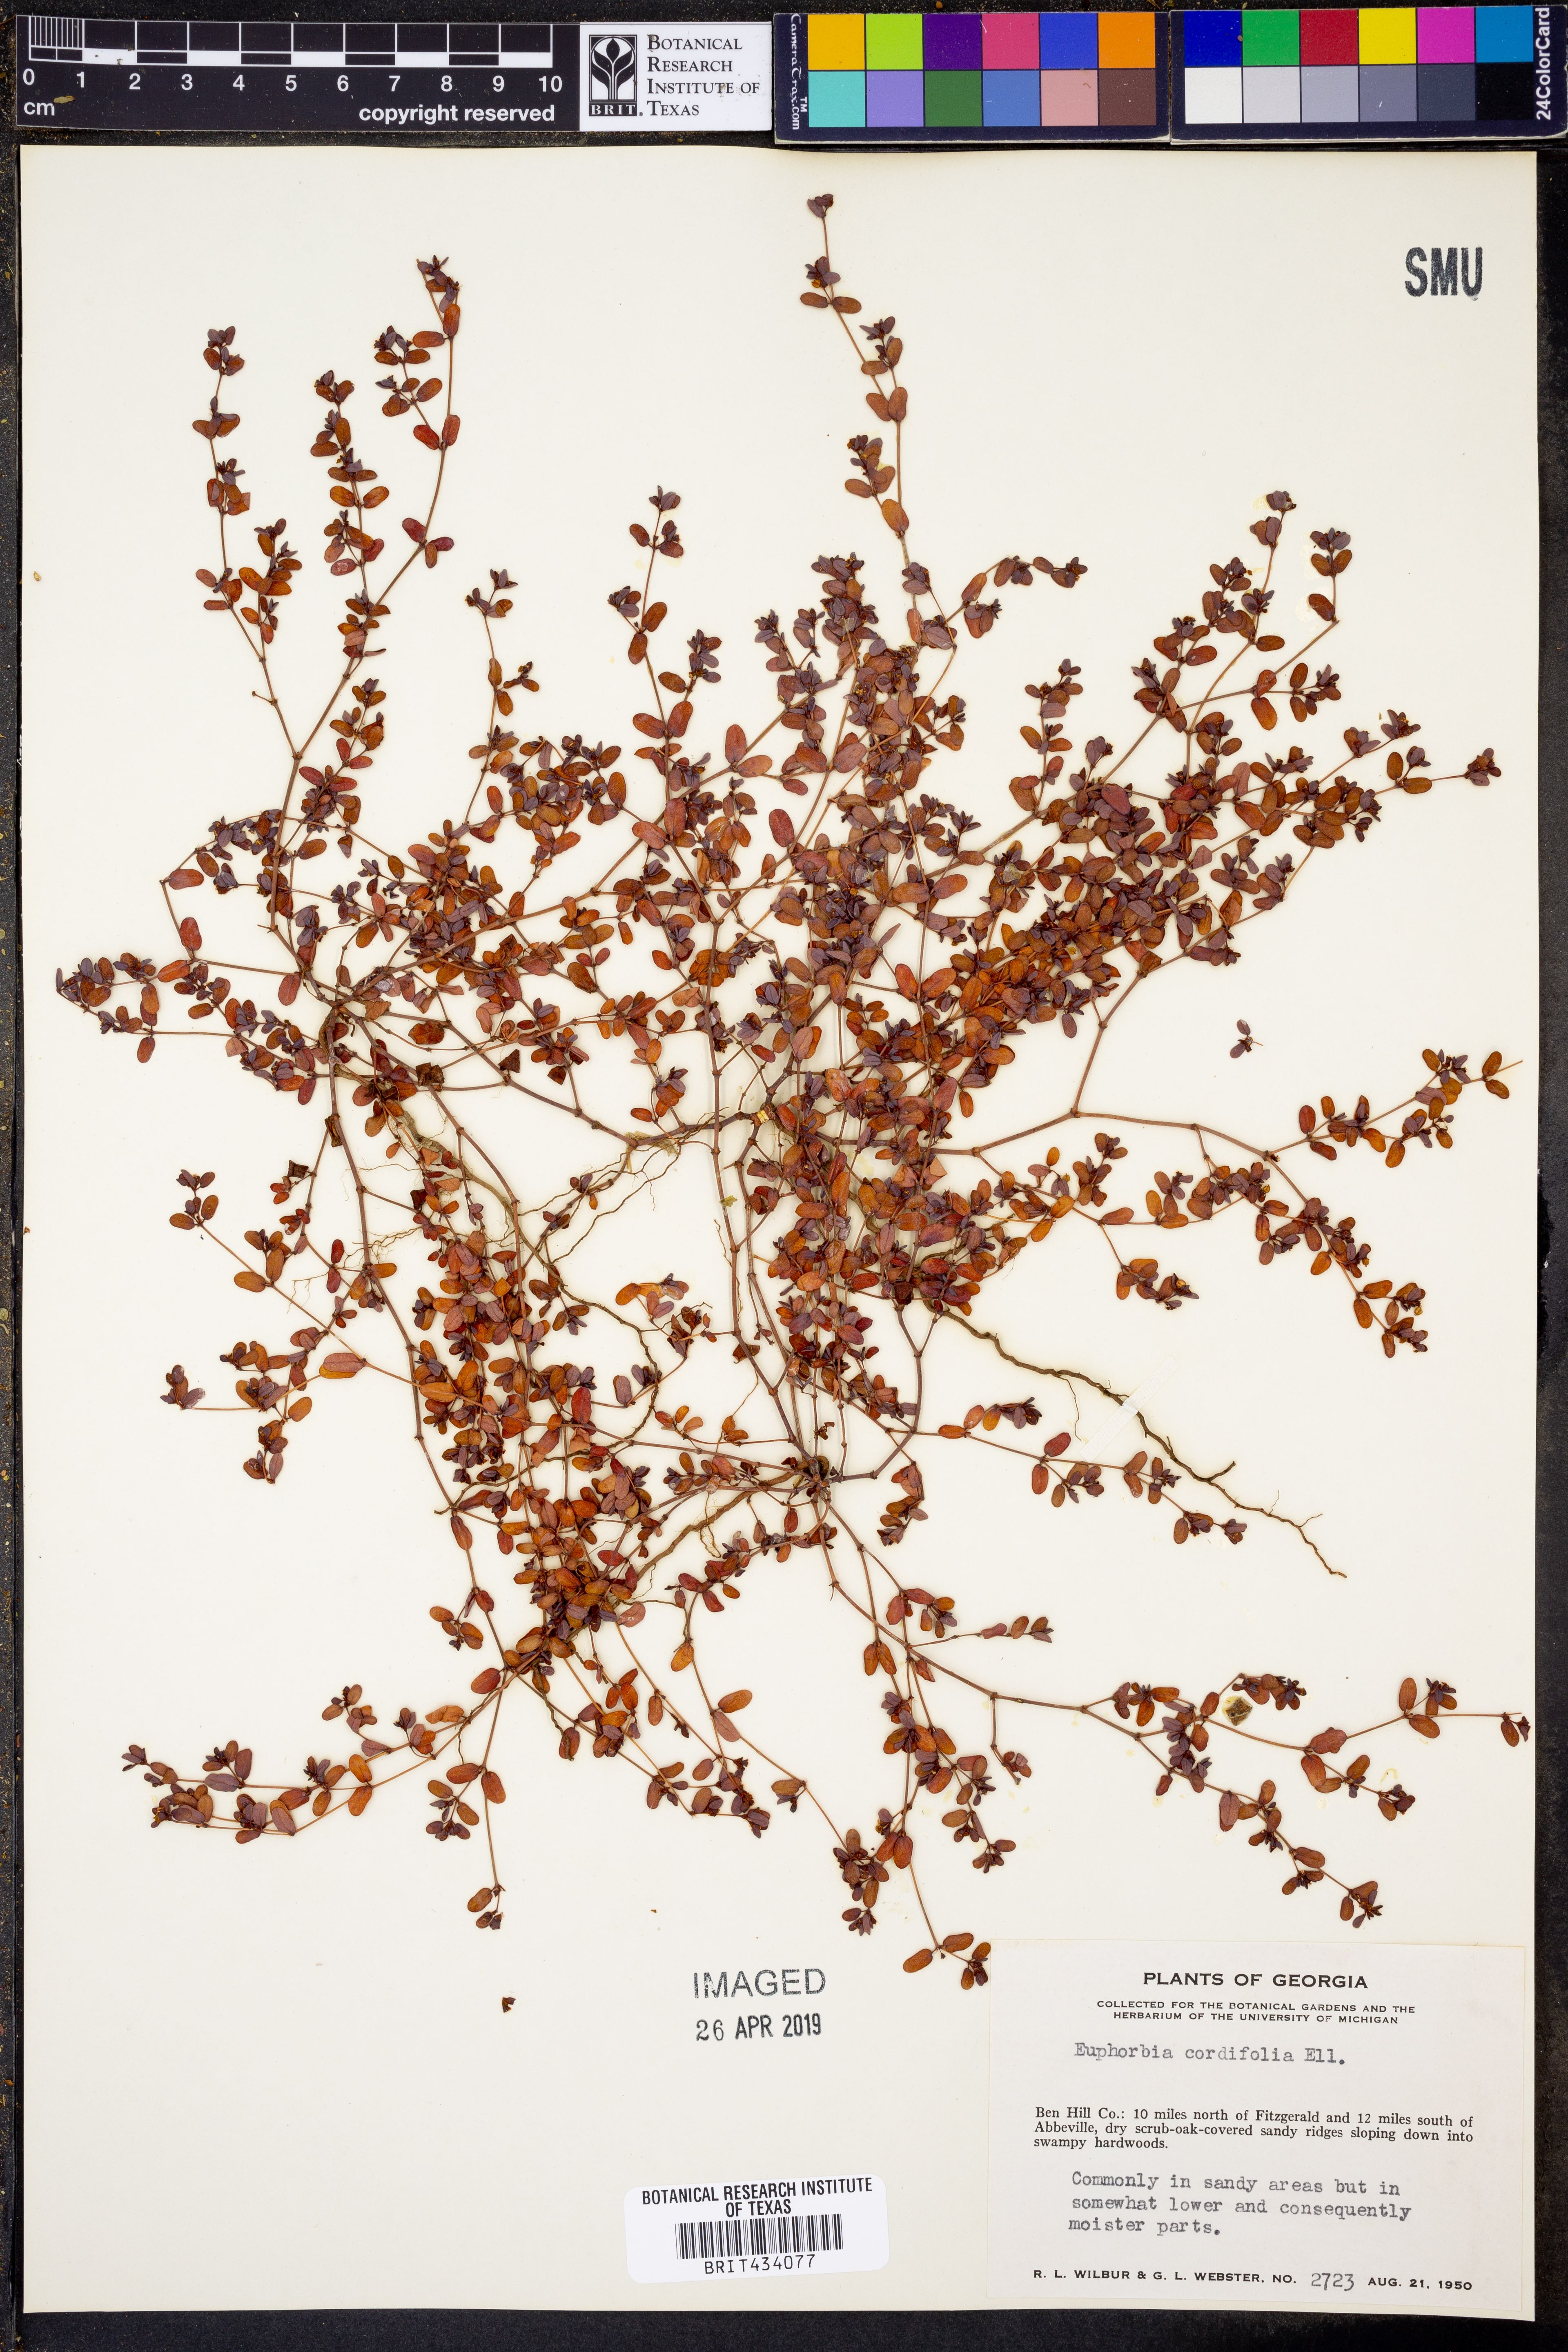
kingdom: Plantae
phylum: Tracheophyta
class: Magnoliopsida
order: Malpighiales
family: Euphorbiaceae
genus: Euphorbia
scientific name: Euphorbia cordifolia
